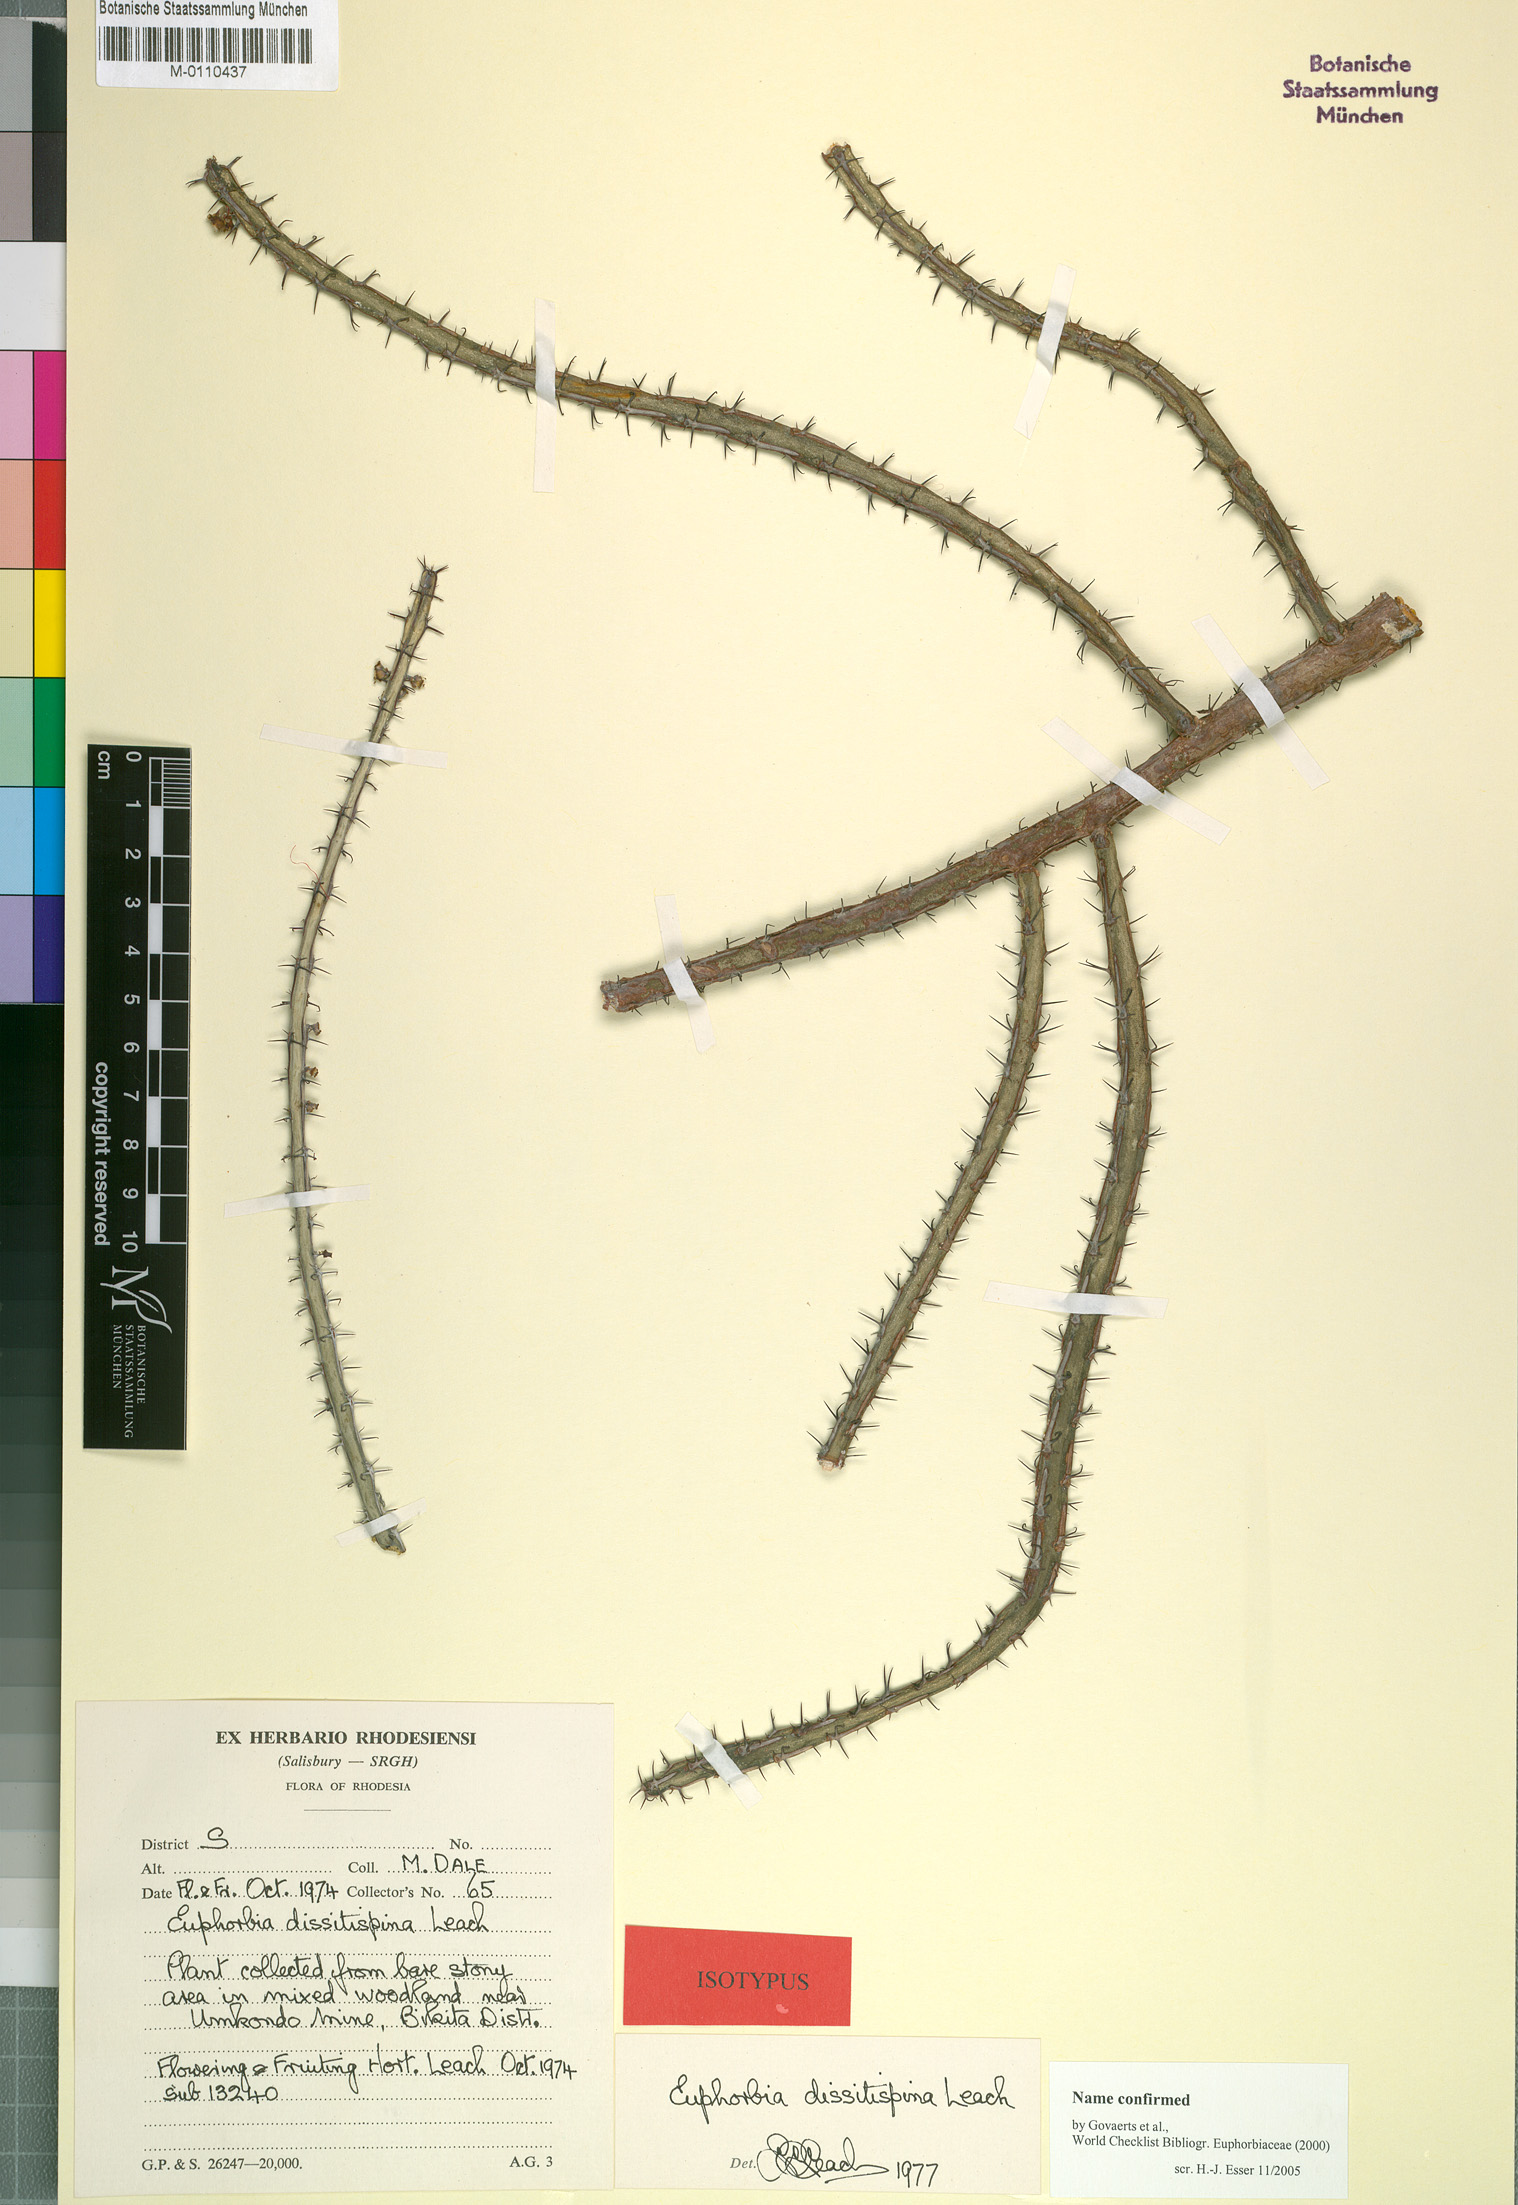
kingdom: Plantae
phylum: Tracheophyta
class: Magnoliopsida
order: Malpighiales
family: Euphorbiaceae
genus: Euphorbia
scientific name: Euphorbia dissitispina
